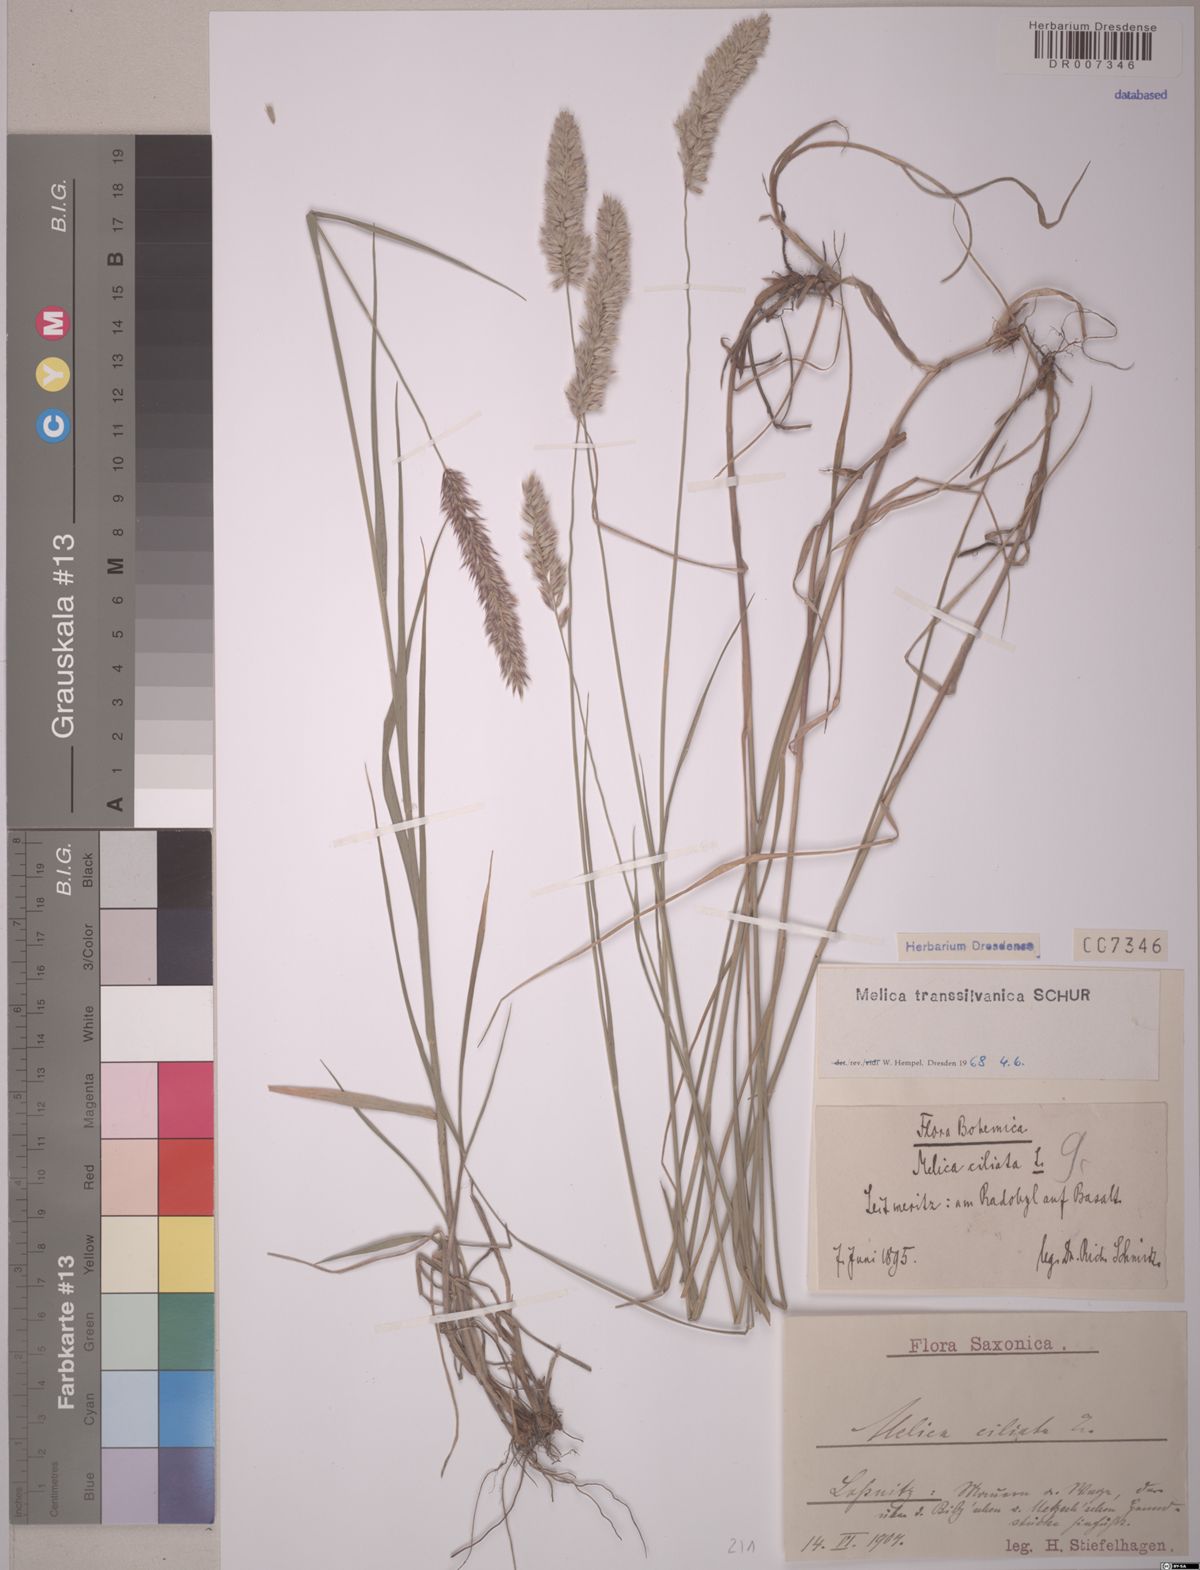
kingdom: Plantae
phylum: Tracheophyta
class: Liliopsida
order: Poales
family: Poaceae
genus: Melica
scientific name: Melica transsilvanica
